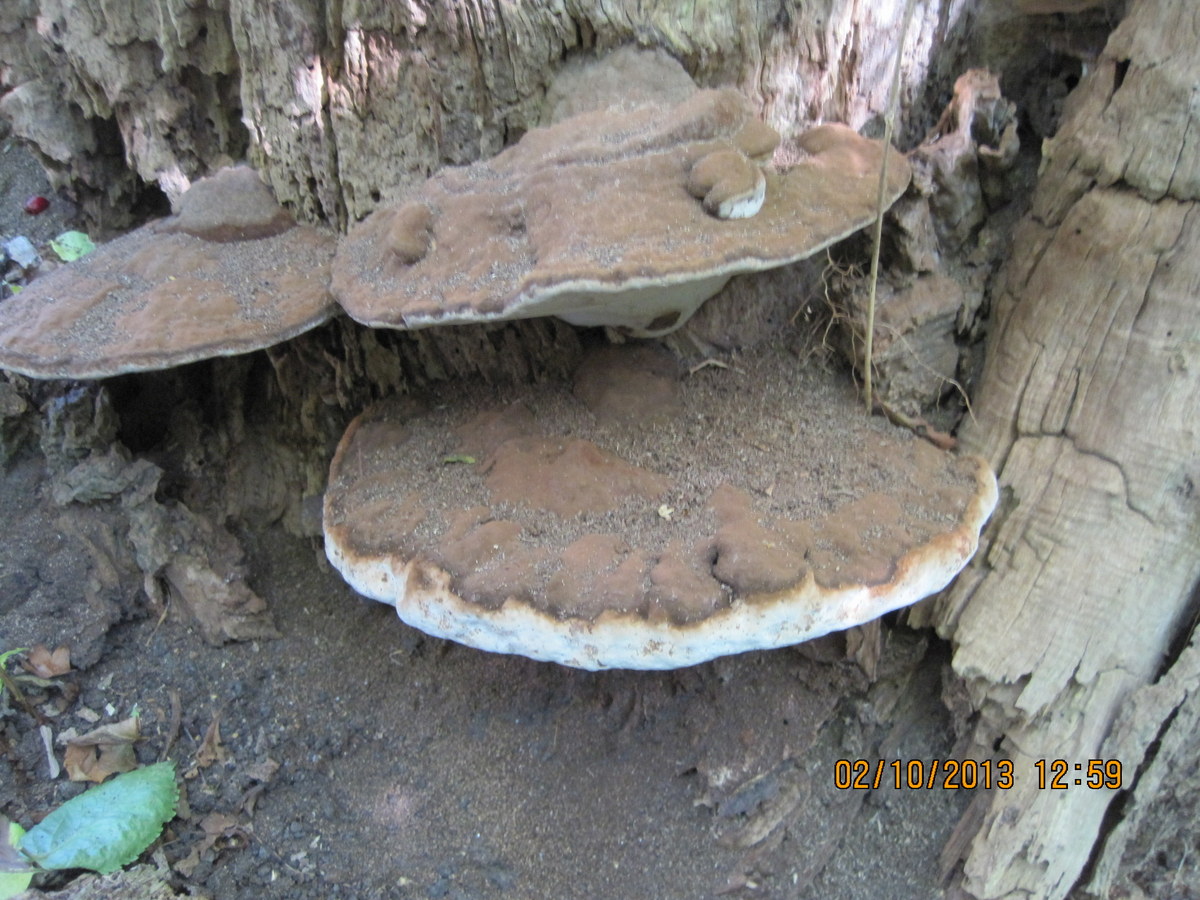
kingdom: Fungi
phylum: Basidiomycota
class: Agaricomycetes
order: Polyporales
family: Polyporaceae
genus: Ganoderma
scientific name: Ganoderma applanatum
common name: flad lakporesvamp
